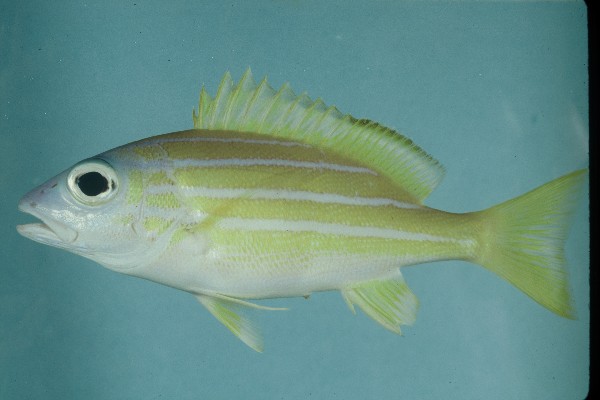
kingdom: Animalia
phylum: Chordata
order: Perciformes
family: Lutjanidae
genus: Lutjanus
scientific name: Lutjanus kasmira
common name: Common bluestripe snapper
